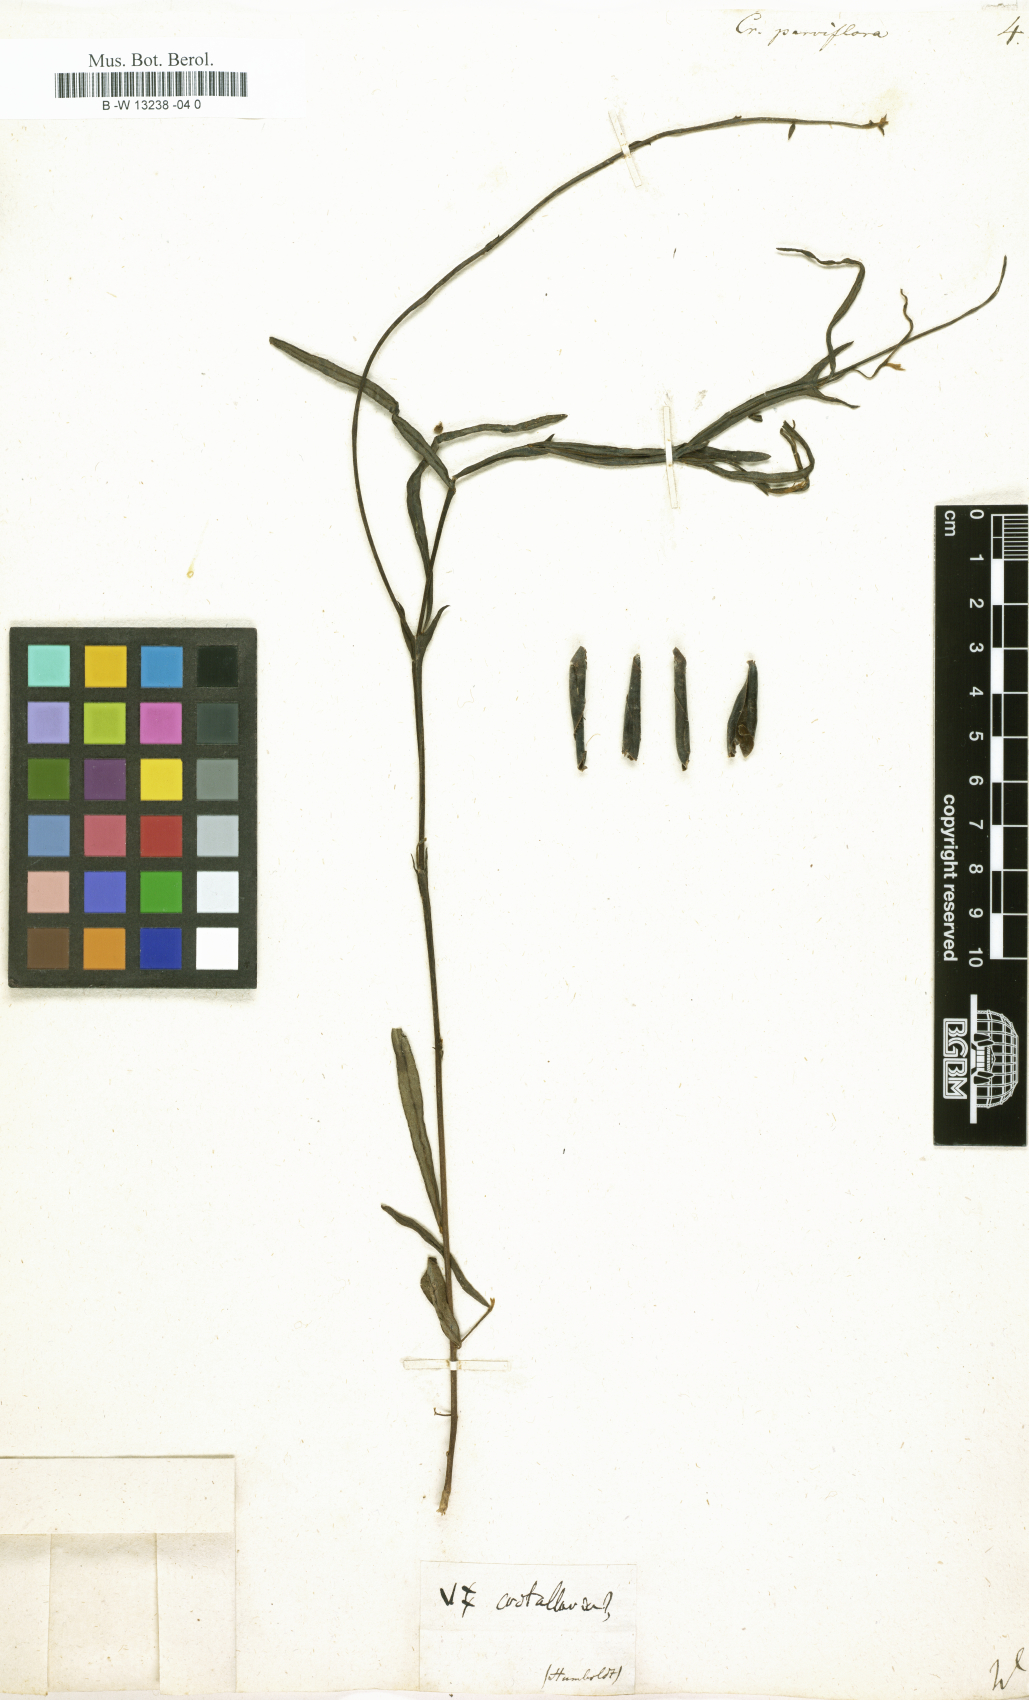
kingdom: Plantae
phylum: Tracheophyta
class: Magnoliopsida
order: Fabales
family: Fabaceae
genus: Crotalaria
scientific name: Crotalaria
